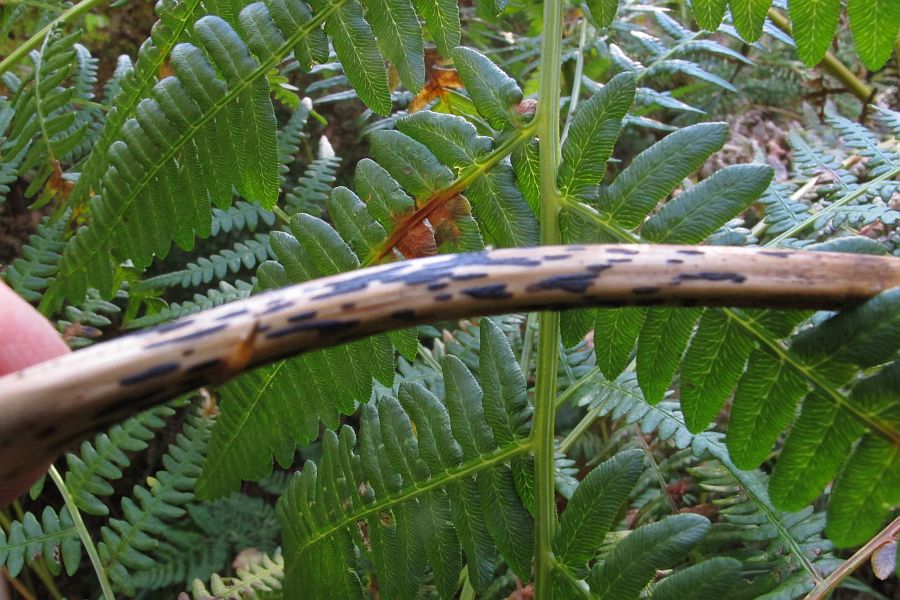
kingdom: Fungi
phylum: Ascomycota
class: Dothideomycetes
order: Pleosporales
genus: Rhopographus
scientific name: Rhopographus filicinus
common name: Bracken map
